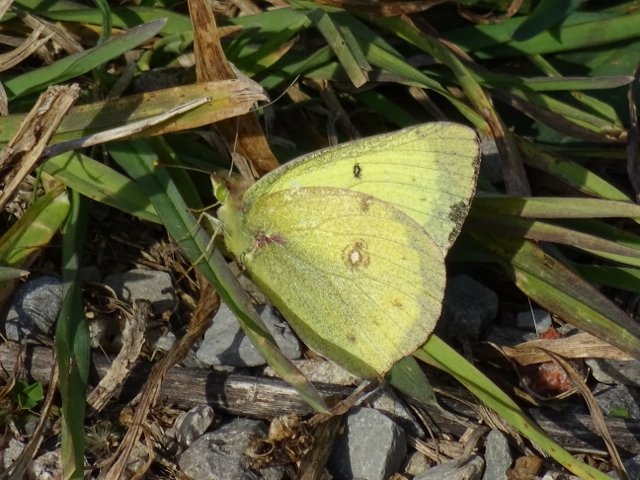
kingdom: Animalia
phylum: Arthropoda
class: Insecta
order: Lepidoptera
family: Pieridae
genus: Colias
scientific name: Colias philodice
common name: Clouded Sulphur
